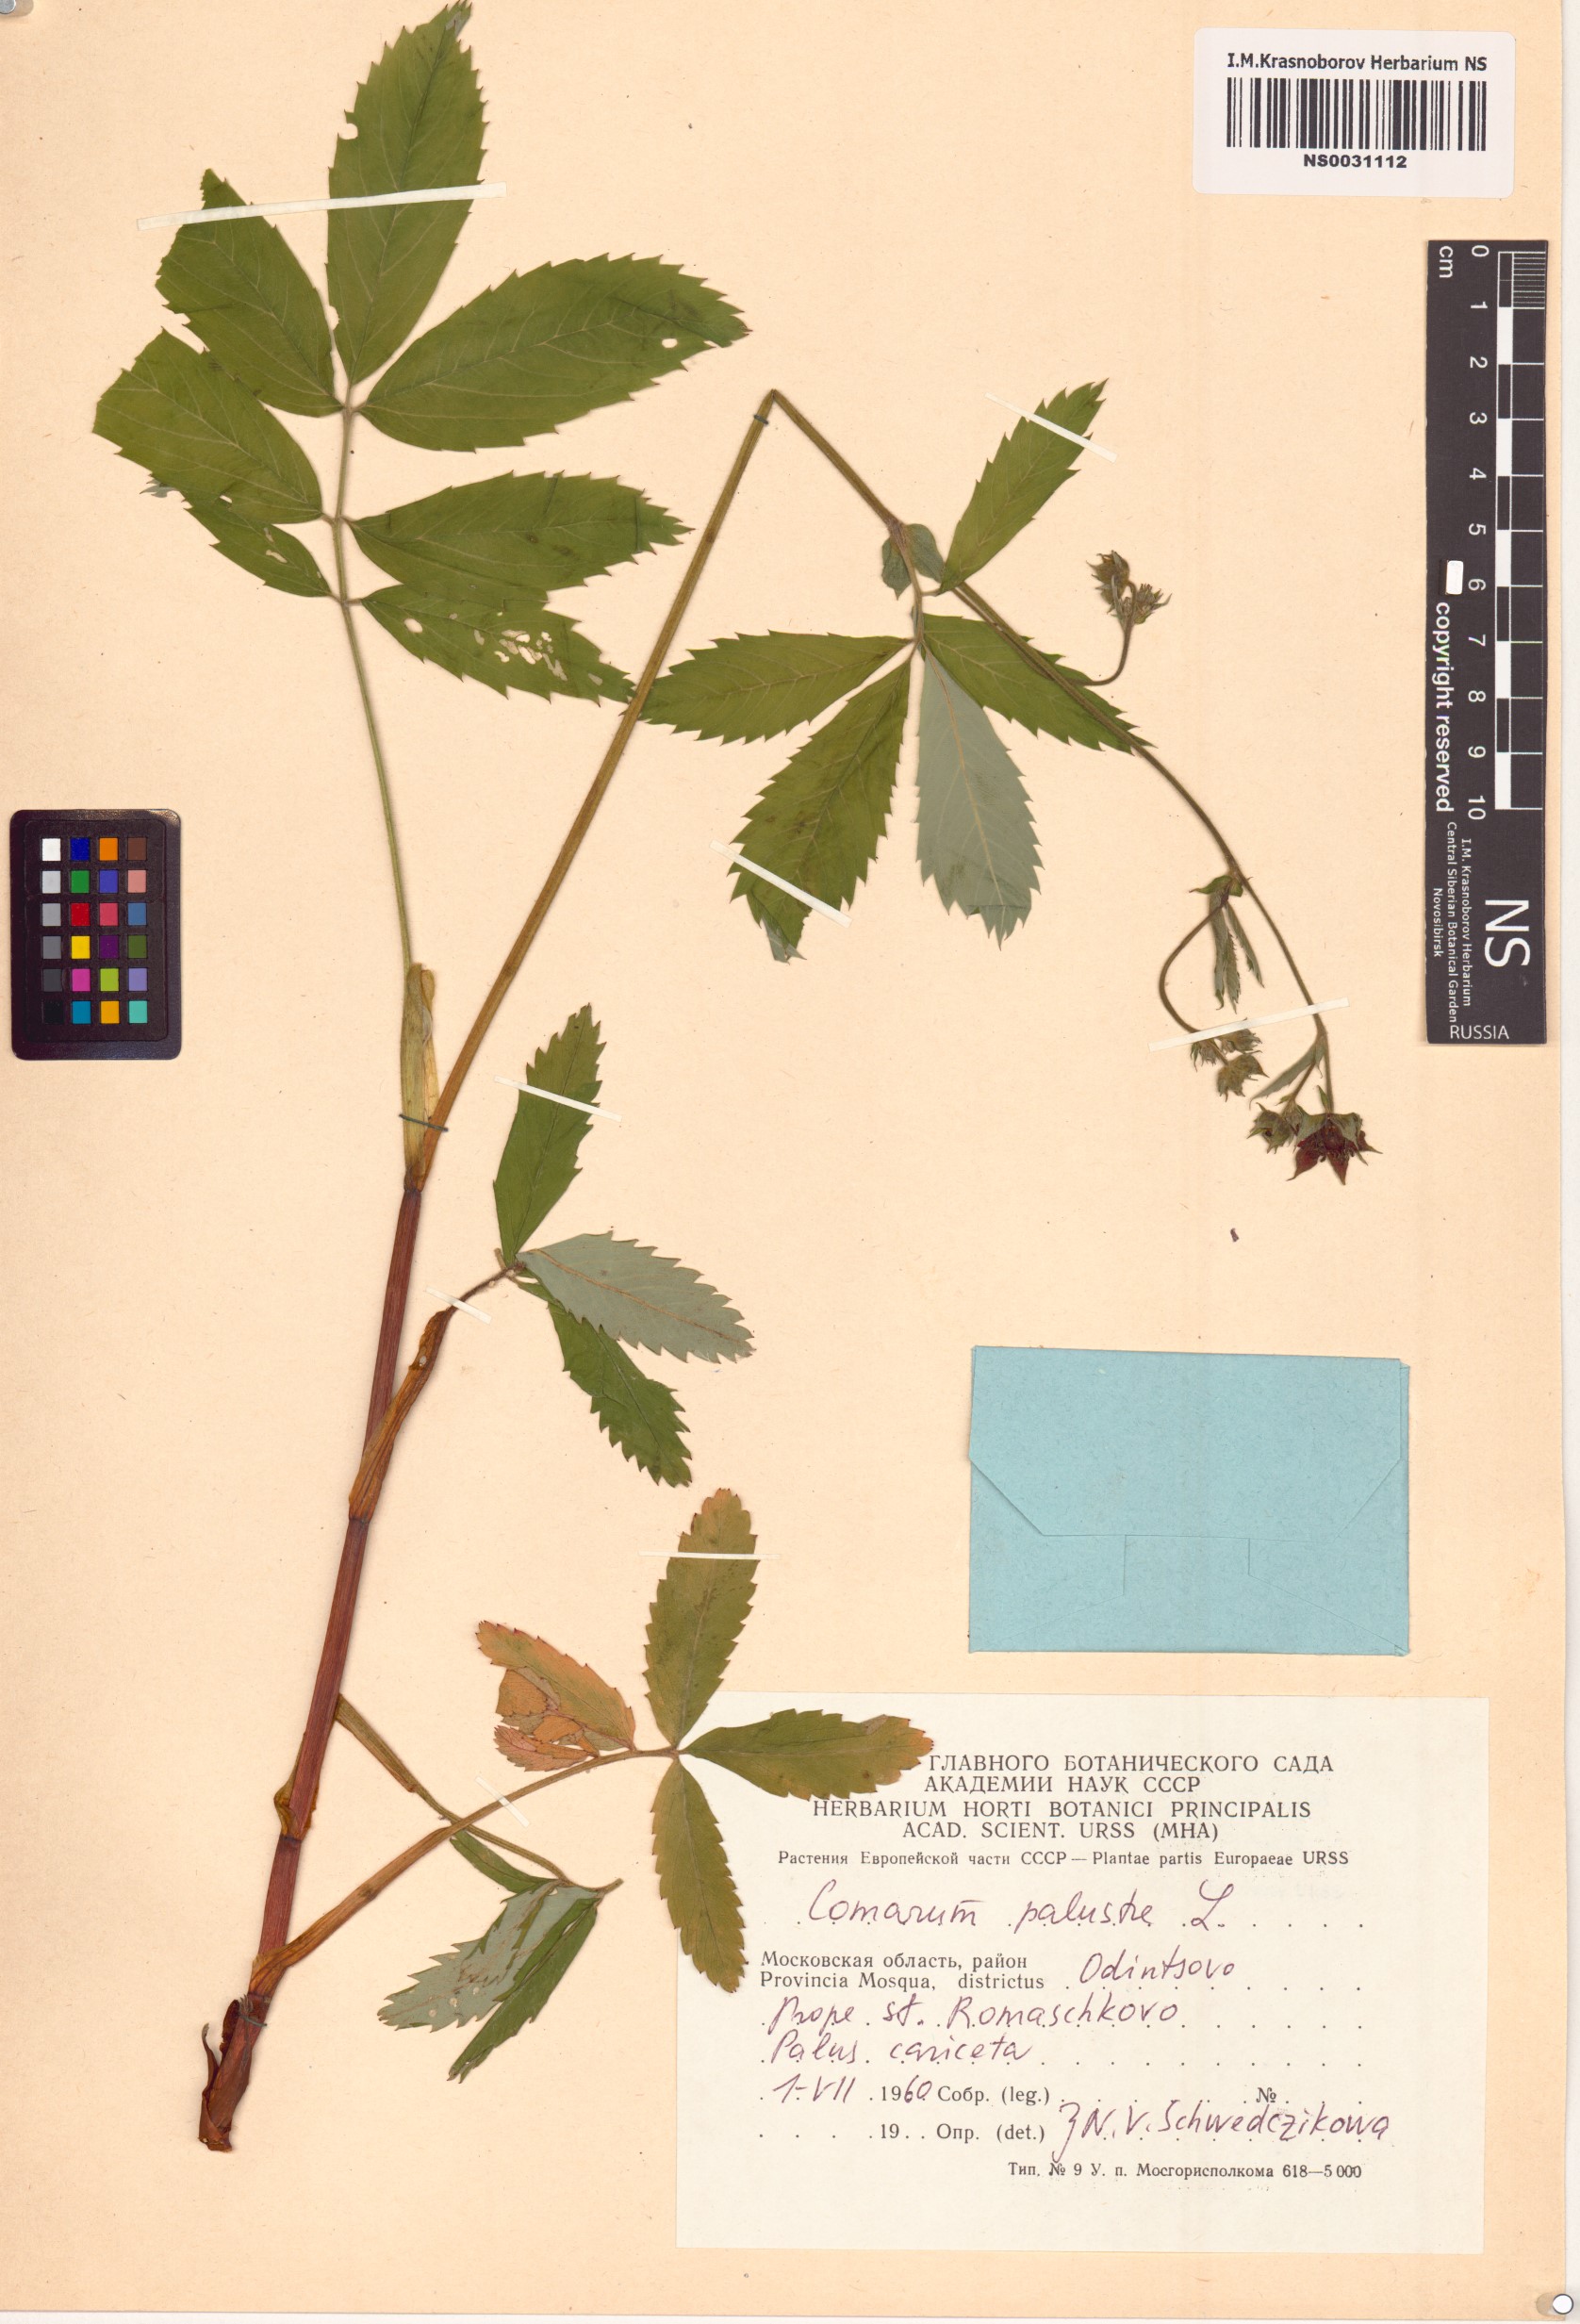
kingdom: Plantae
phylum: Tracheophyta
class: Magnoliopsida
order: Rosales
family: Rosaceae
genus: Comarum
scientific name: Comarum palustre
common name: Marsh cinquefoil
